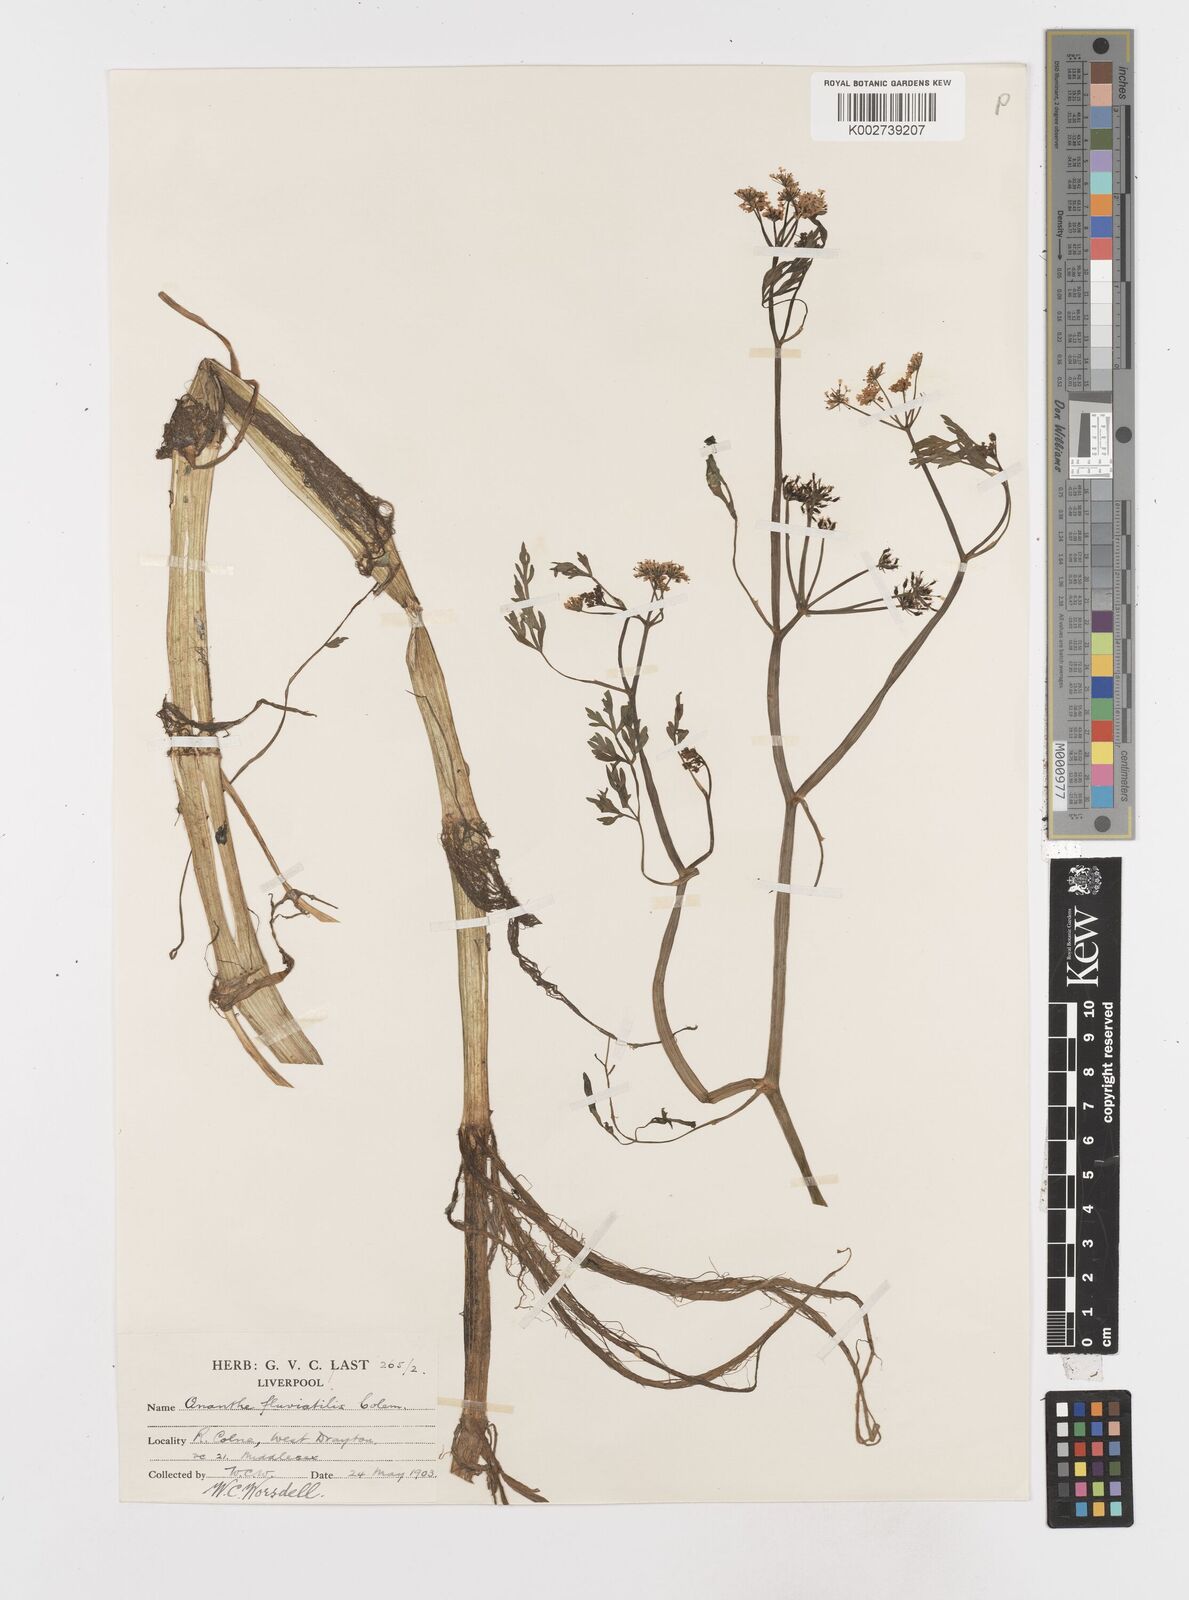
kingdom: Plantae
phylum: Tracheophyta
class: Magnoliopsida
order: Apiales
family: Apiaceae
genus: Oenanthe
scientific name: Oenanthe fluviatilis
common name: River water-dropwort
